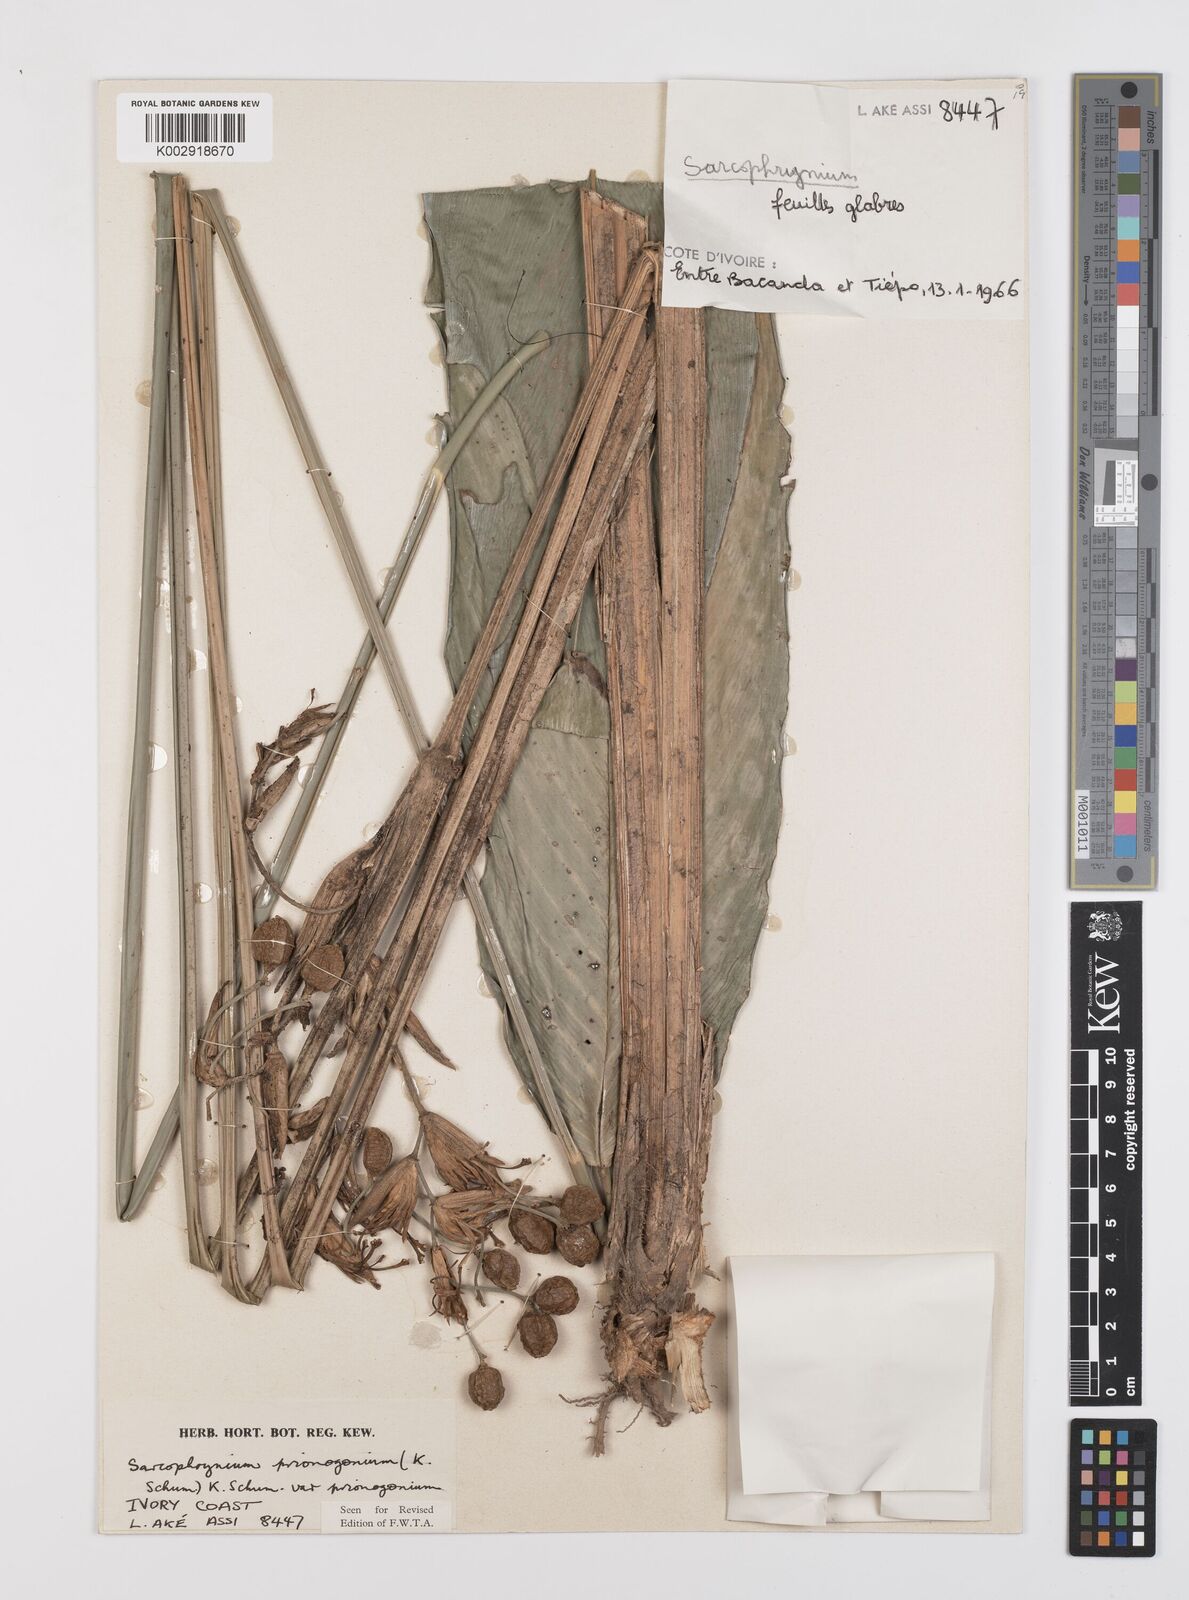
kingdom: Plantae
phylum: Tracheophyta
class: Liliopsida
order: Zingiberales
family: Marantaceae
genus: Sarcophrynium
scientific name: Sarcophrynium prionogonium
